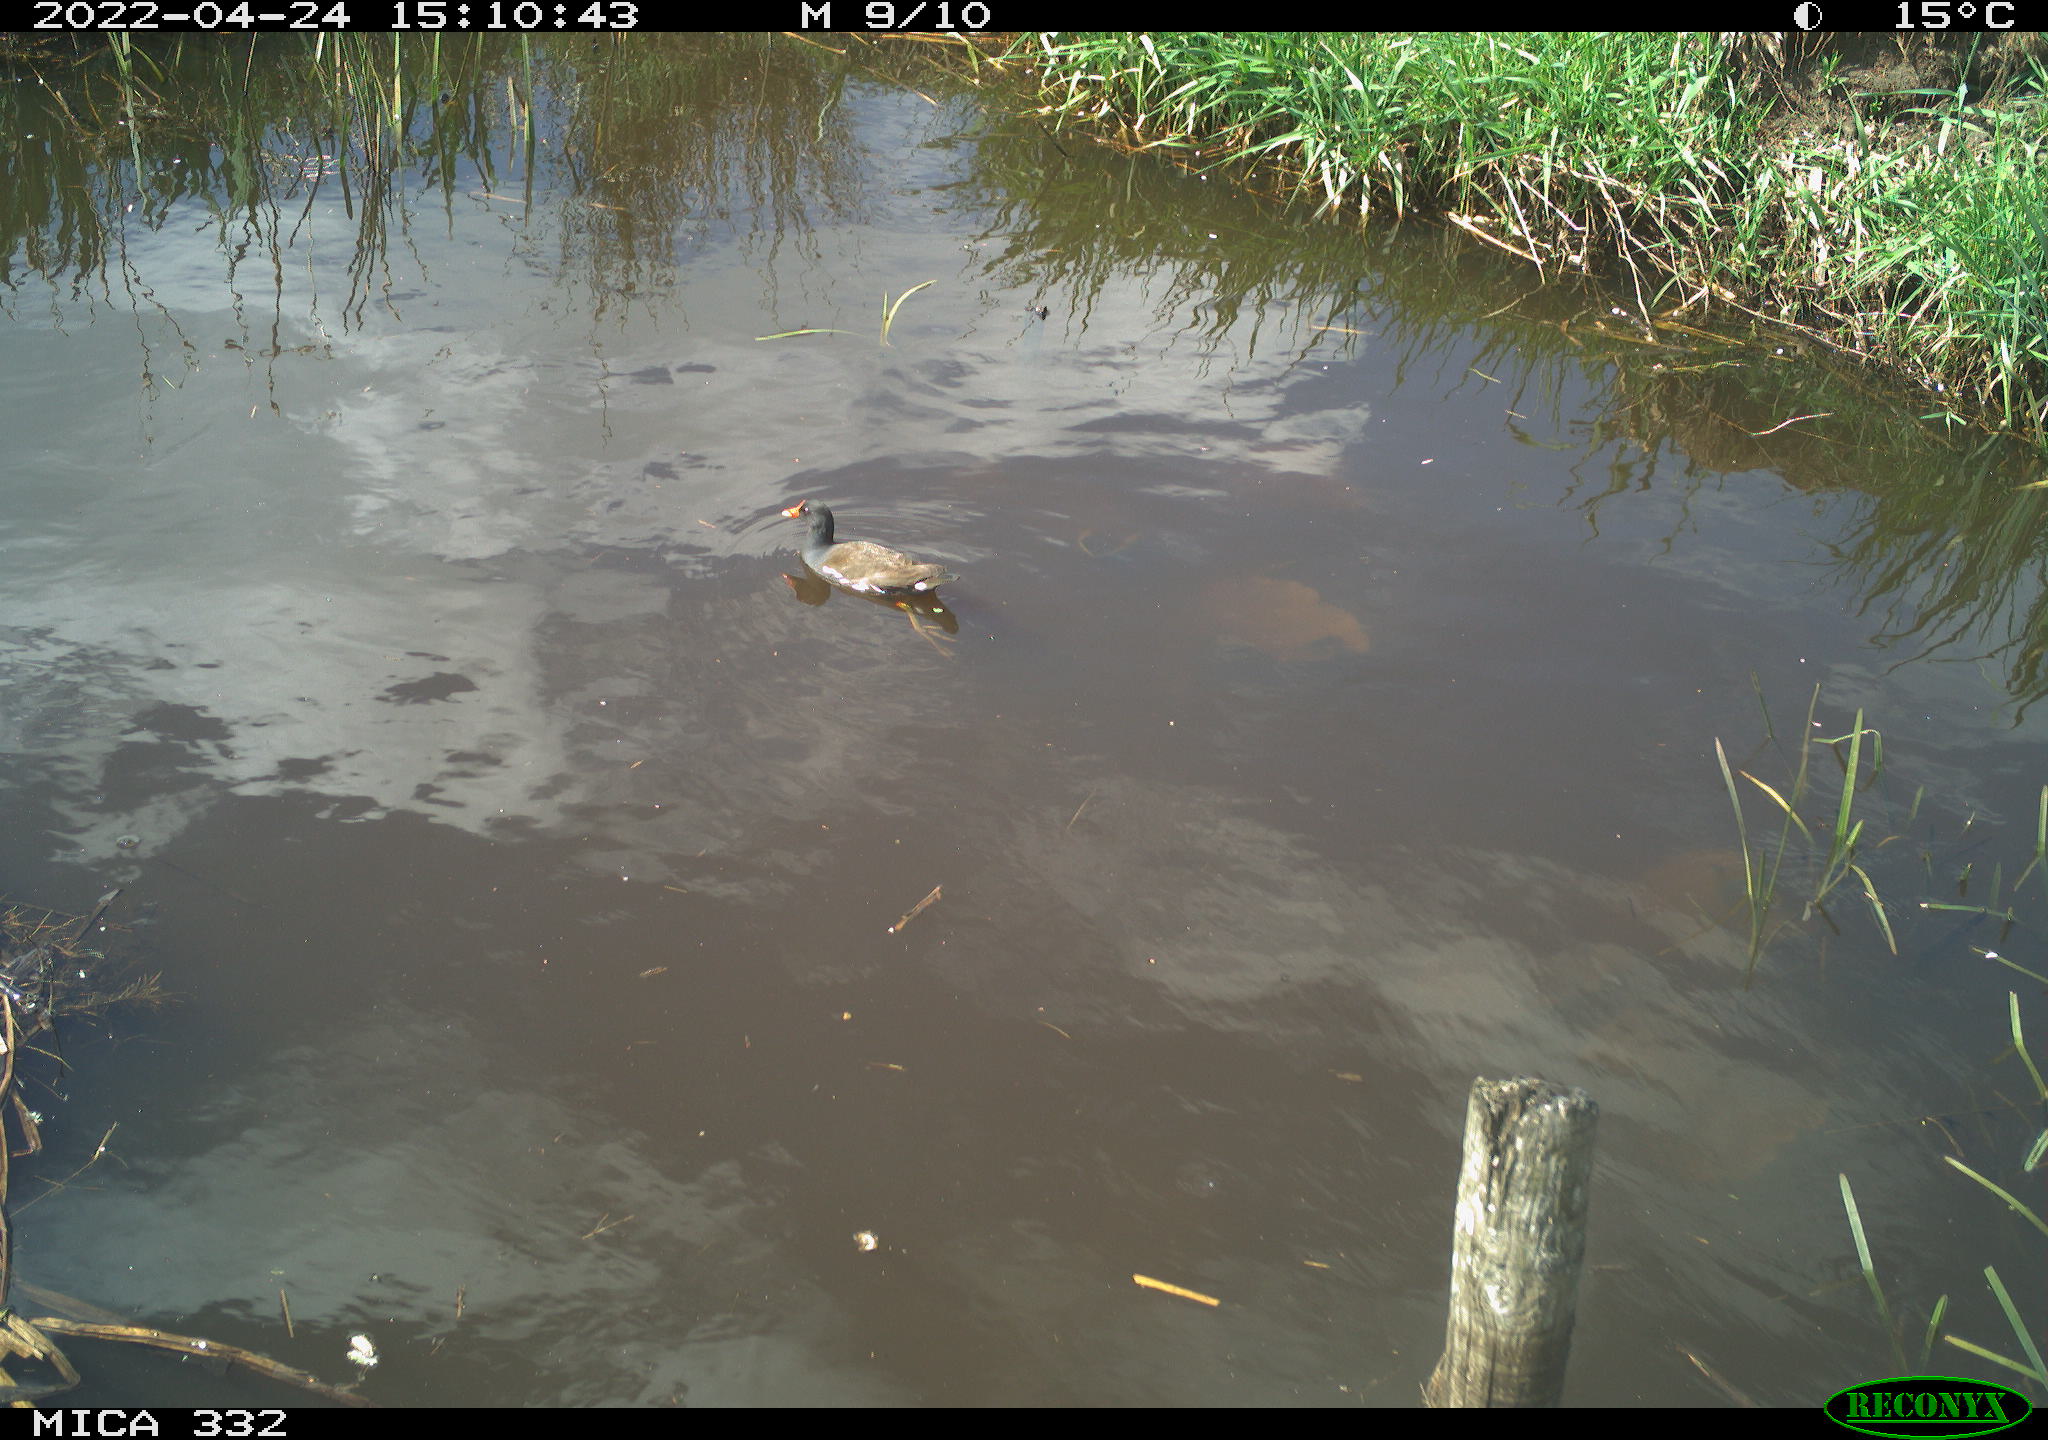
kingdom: Animalia
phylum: Chordata
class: Aves
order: Gruiformes
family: Rallidae
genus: Gallinula
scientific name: Gallinula chloropus
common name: Common moorhen
